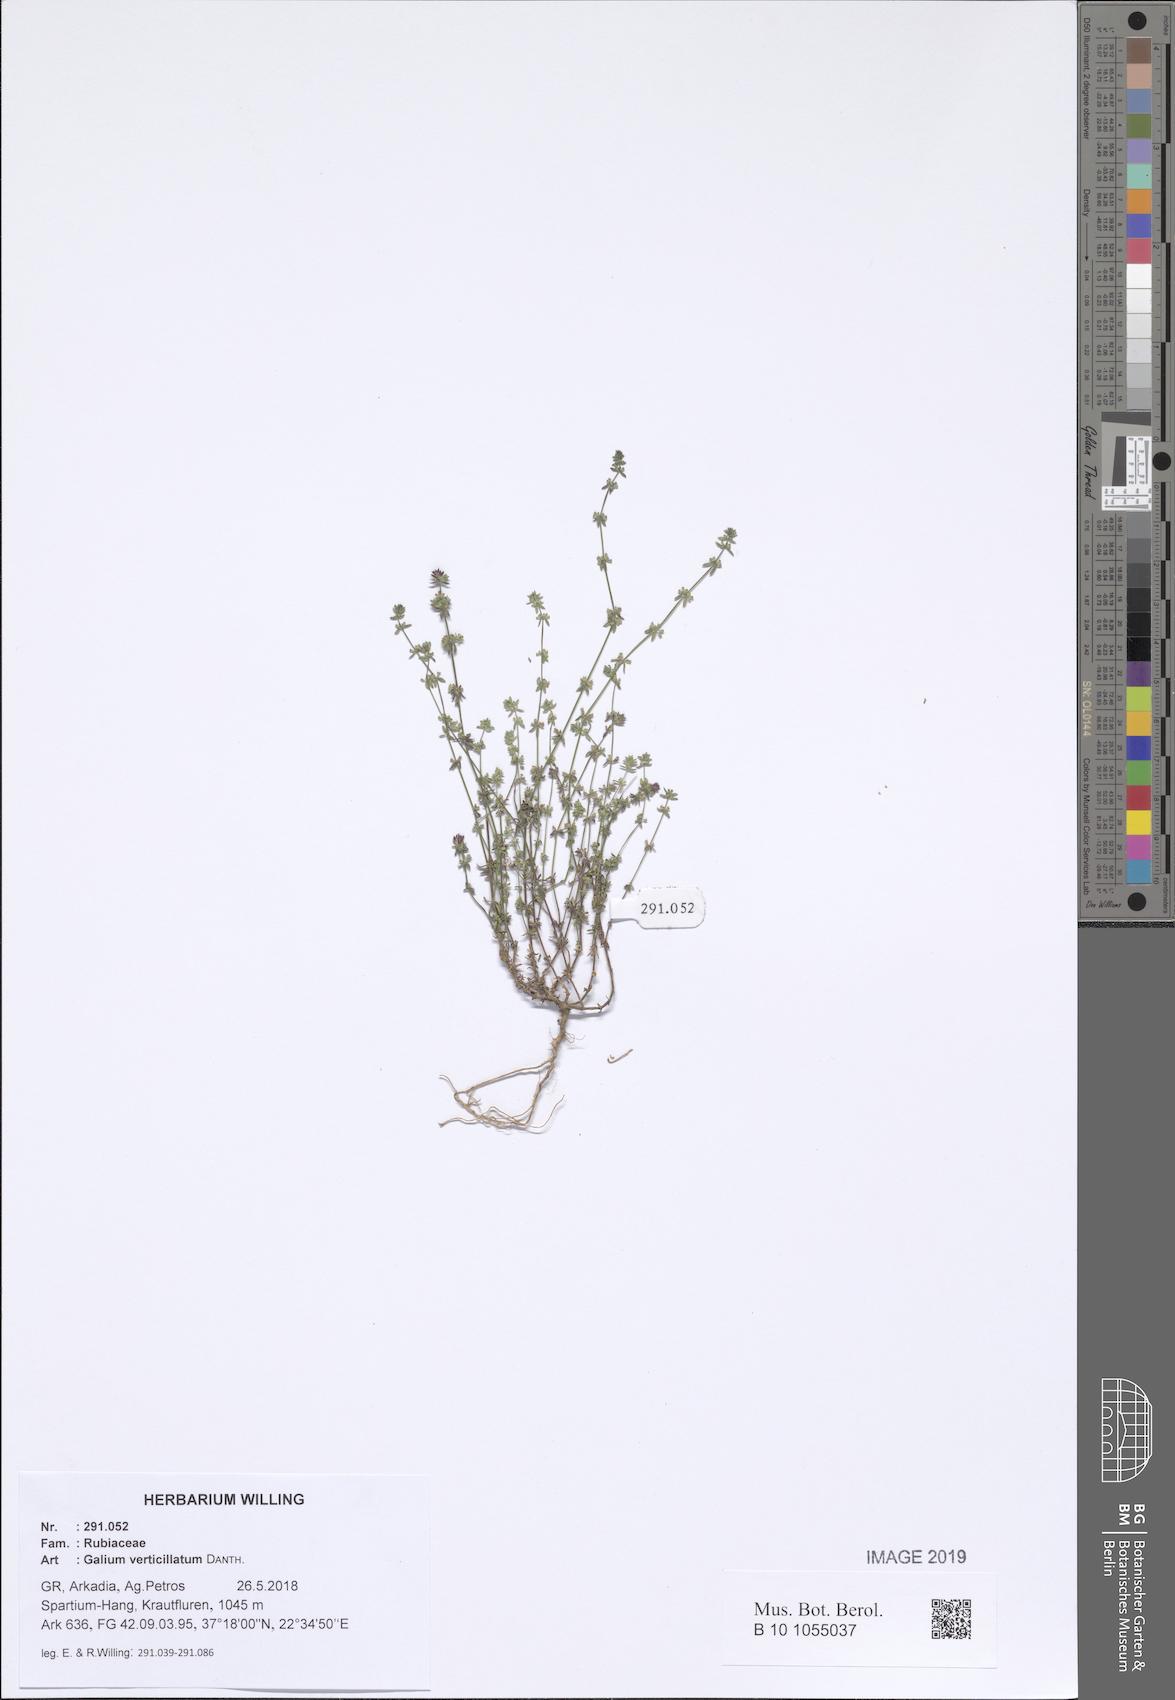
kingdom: Plantae
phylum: Tracheophyta
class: Magnoliopsida
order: Gentianales
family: Rubiaceae
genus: Galium
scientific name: Galium verticillatum
